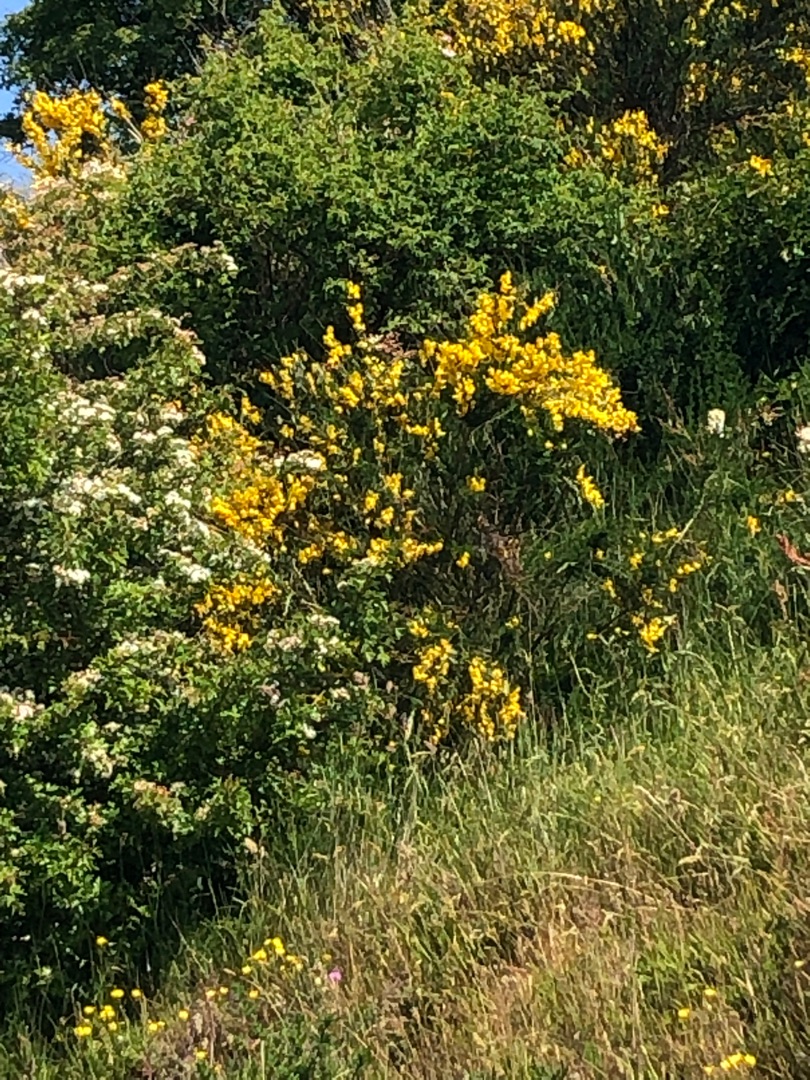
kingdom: Plantae
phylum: Tracheophyta
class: Magnoliopsida
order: Fabales
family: Fabaceae
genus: Cytisus
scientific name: Cytisus scoparius
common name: Almindelig gyvel
